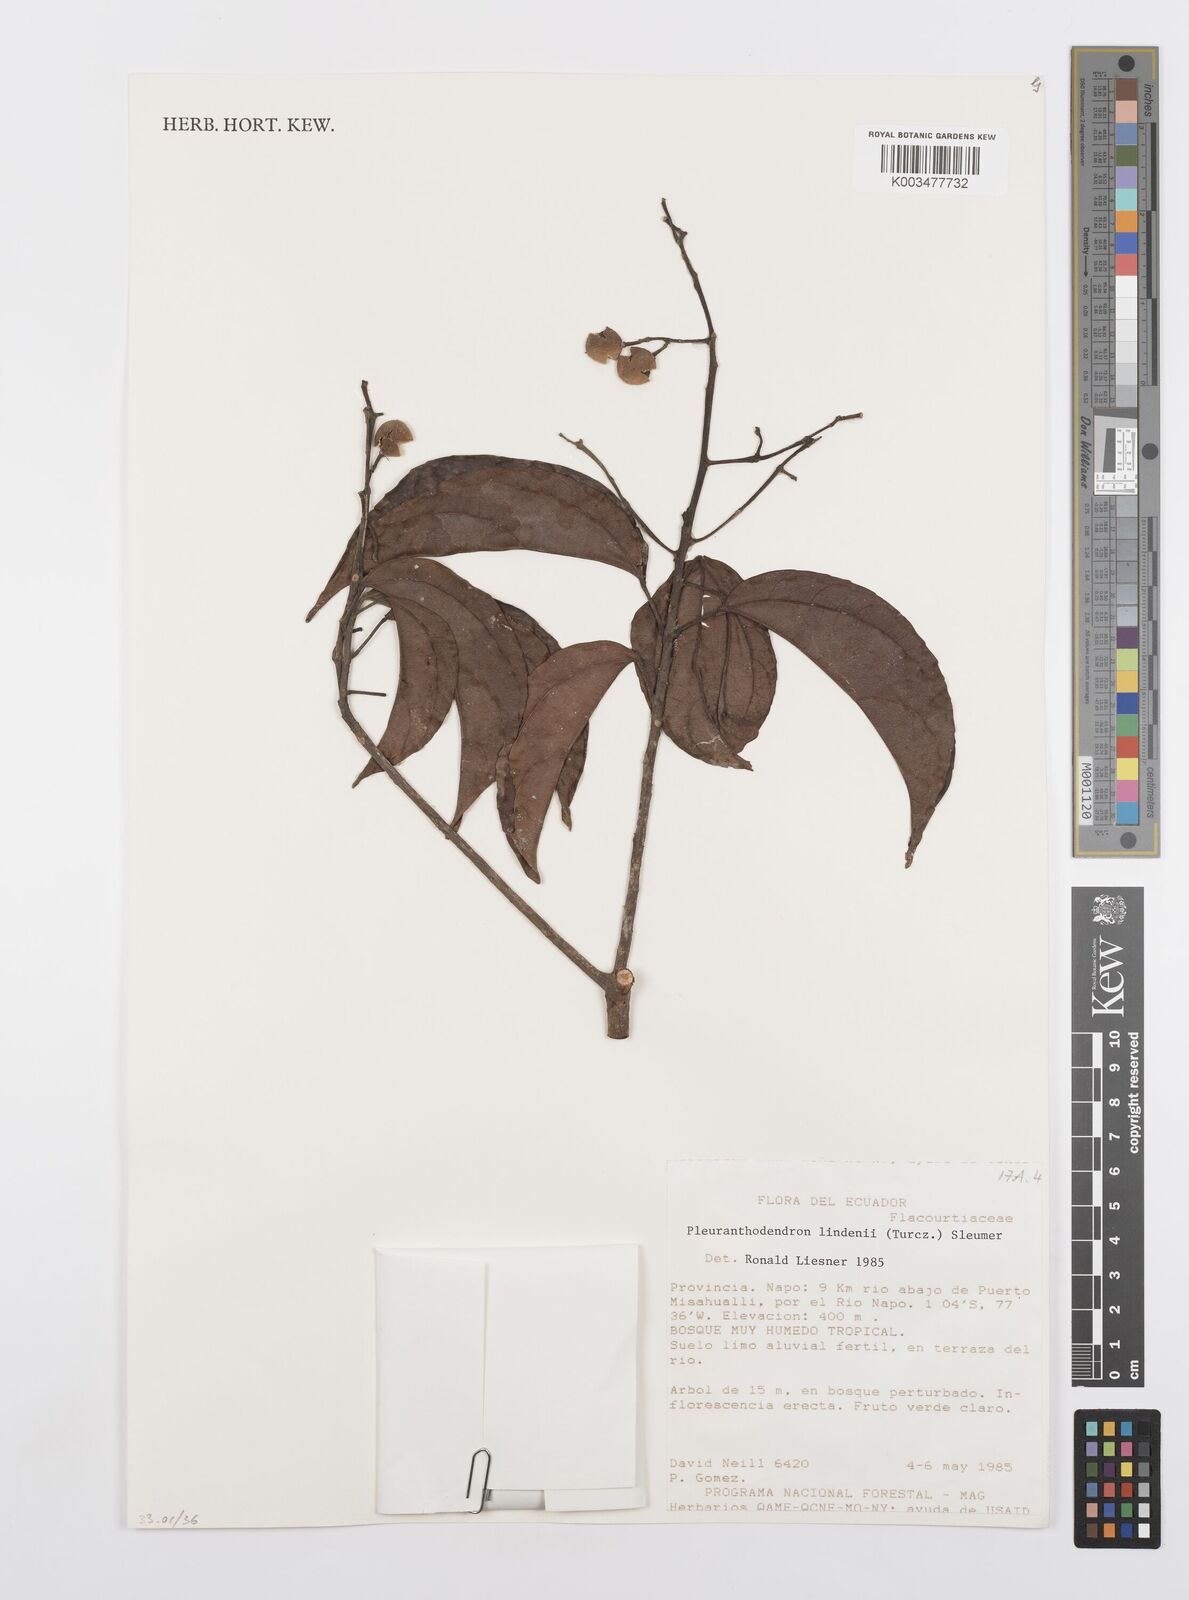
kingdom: Plantae
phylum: Tracheophyta
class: Magnoliopsida
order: Malpighiales
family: Salicaceae
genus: Pleuranthodendron
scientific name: Pleuranthodendron lindenii
